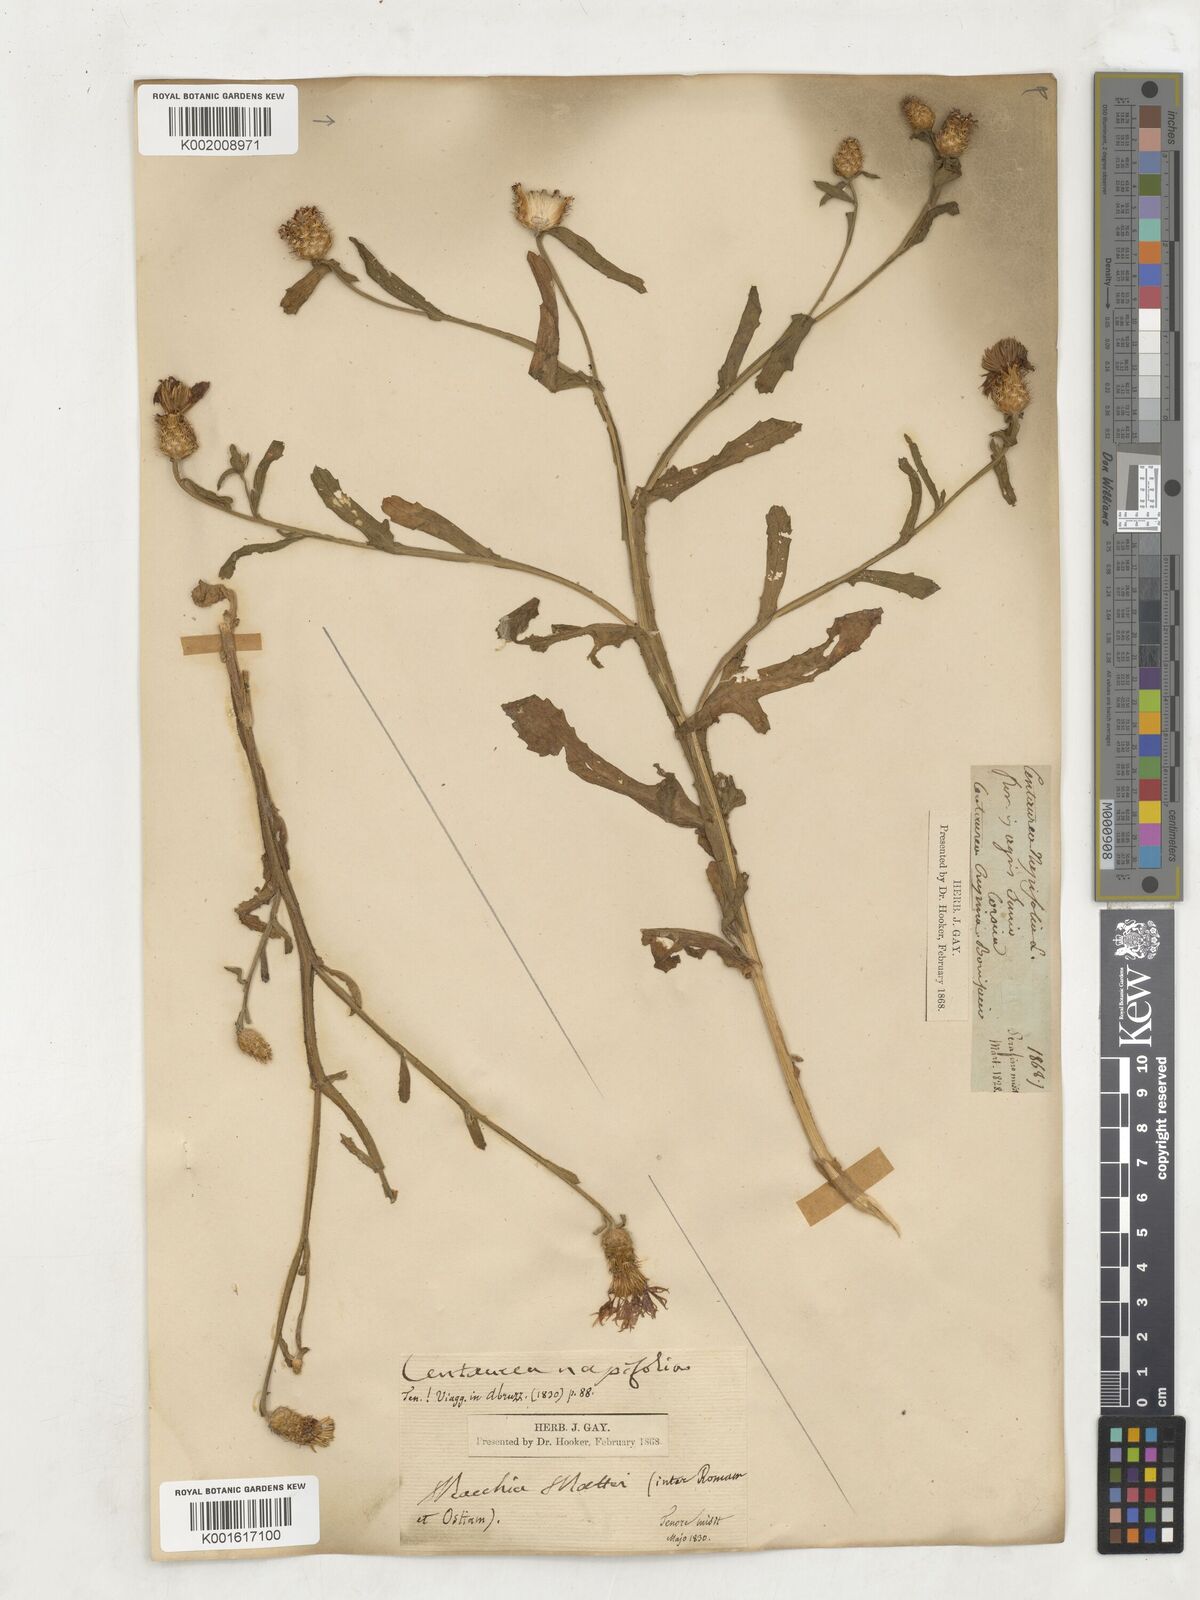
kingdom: Plantae
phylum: Tracheophyta
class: Magnoliopsida
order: Asterales
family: Asteraceae
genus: Centaurea
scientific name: Centaurea napifolia
